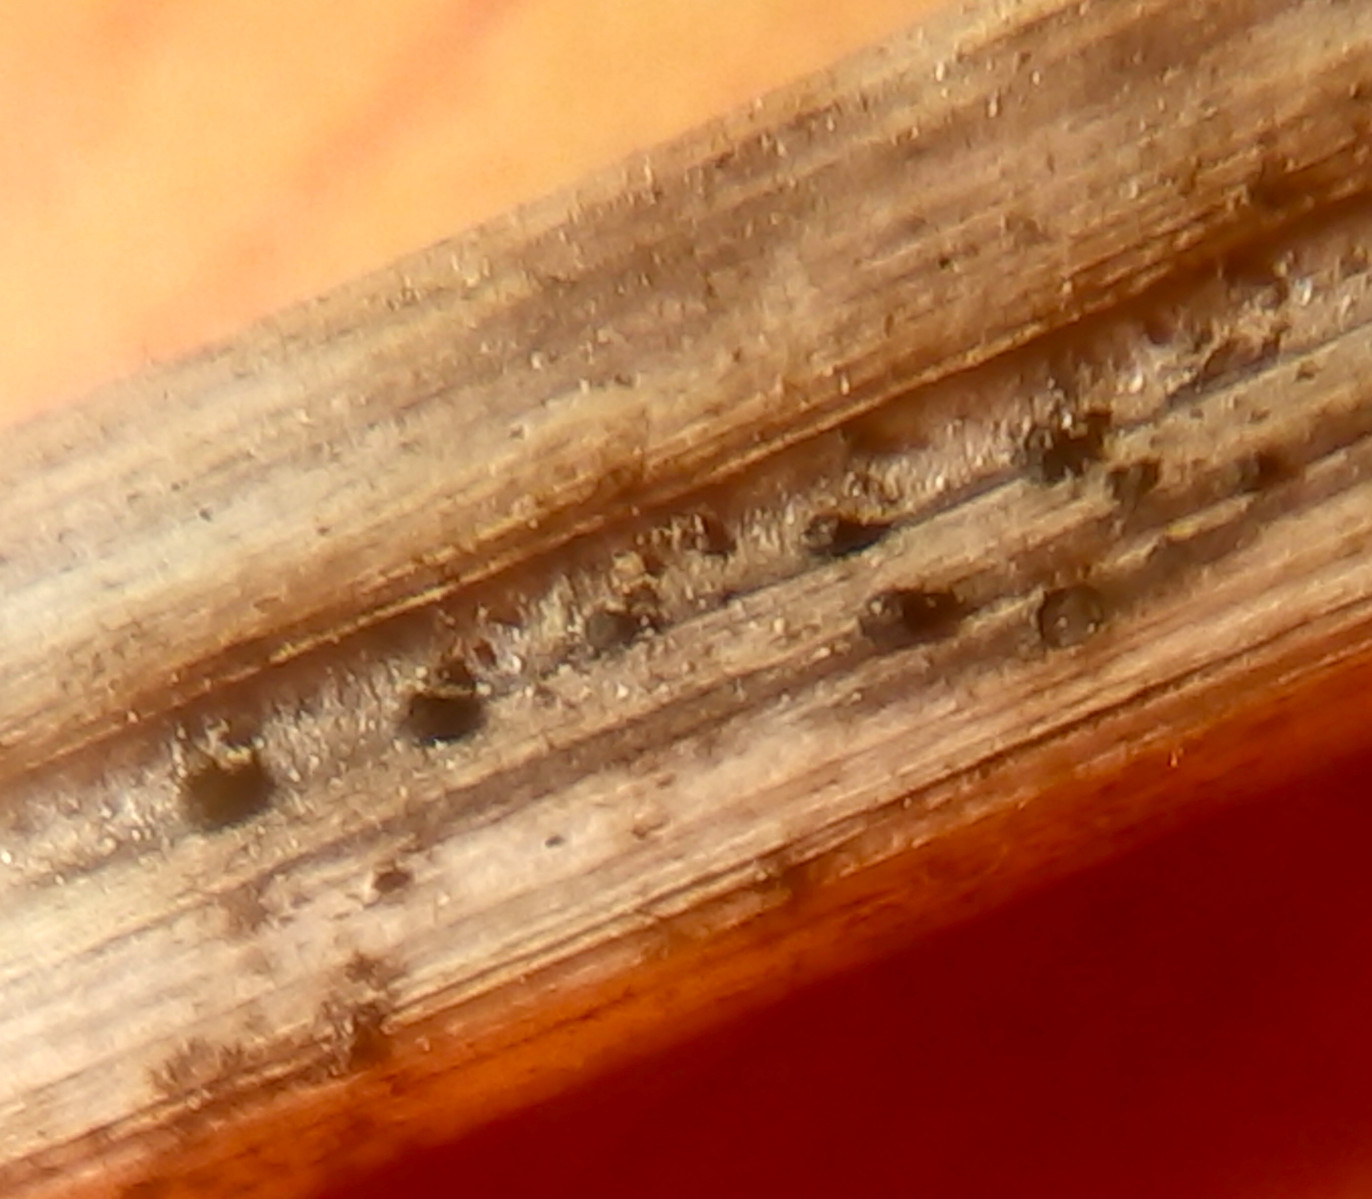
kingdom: Fungi
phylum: Ascomycota
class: Dothideomycetes
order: Pleosporales
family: Leptosphaeriaceae
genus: Leptosphaeria
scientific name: Leptosphaeria doliolum
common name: skærm-kulkegle
